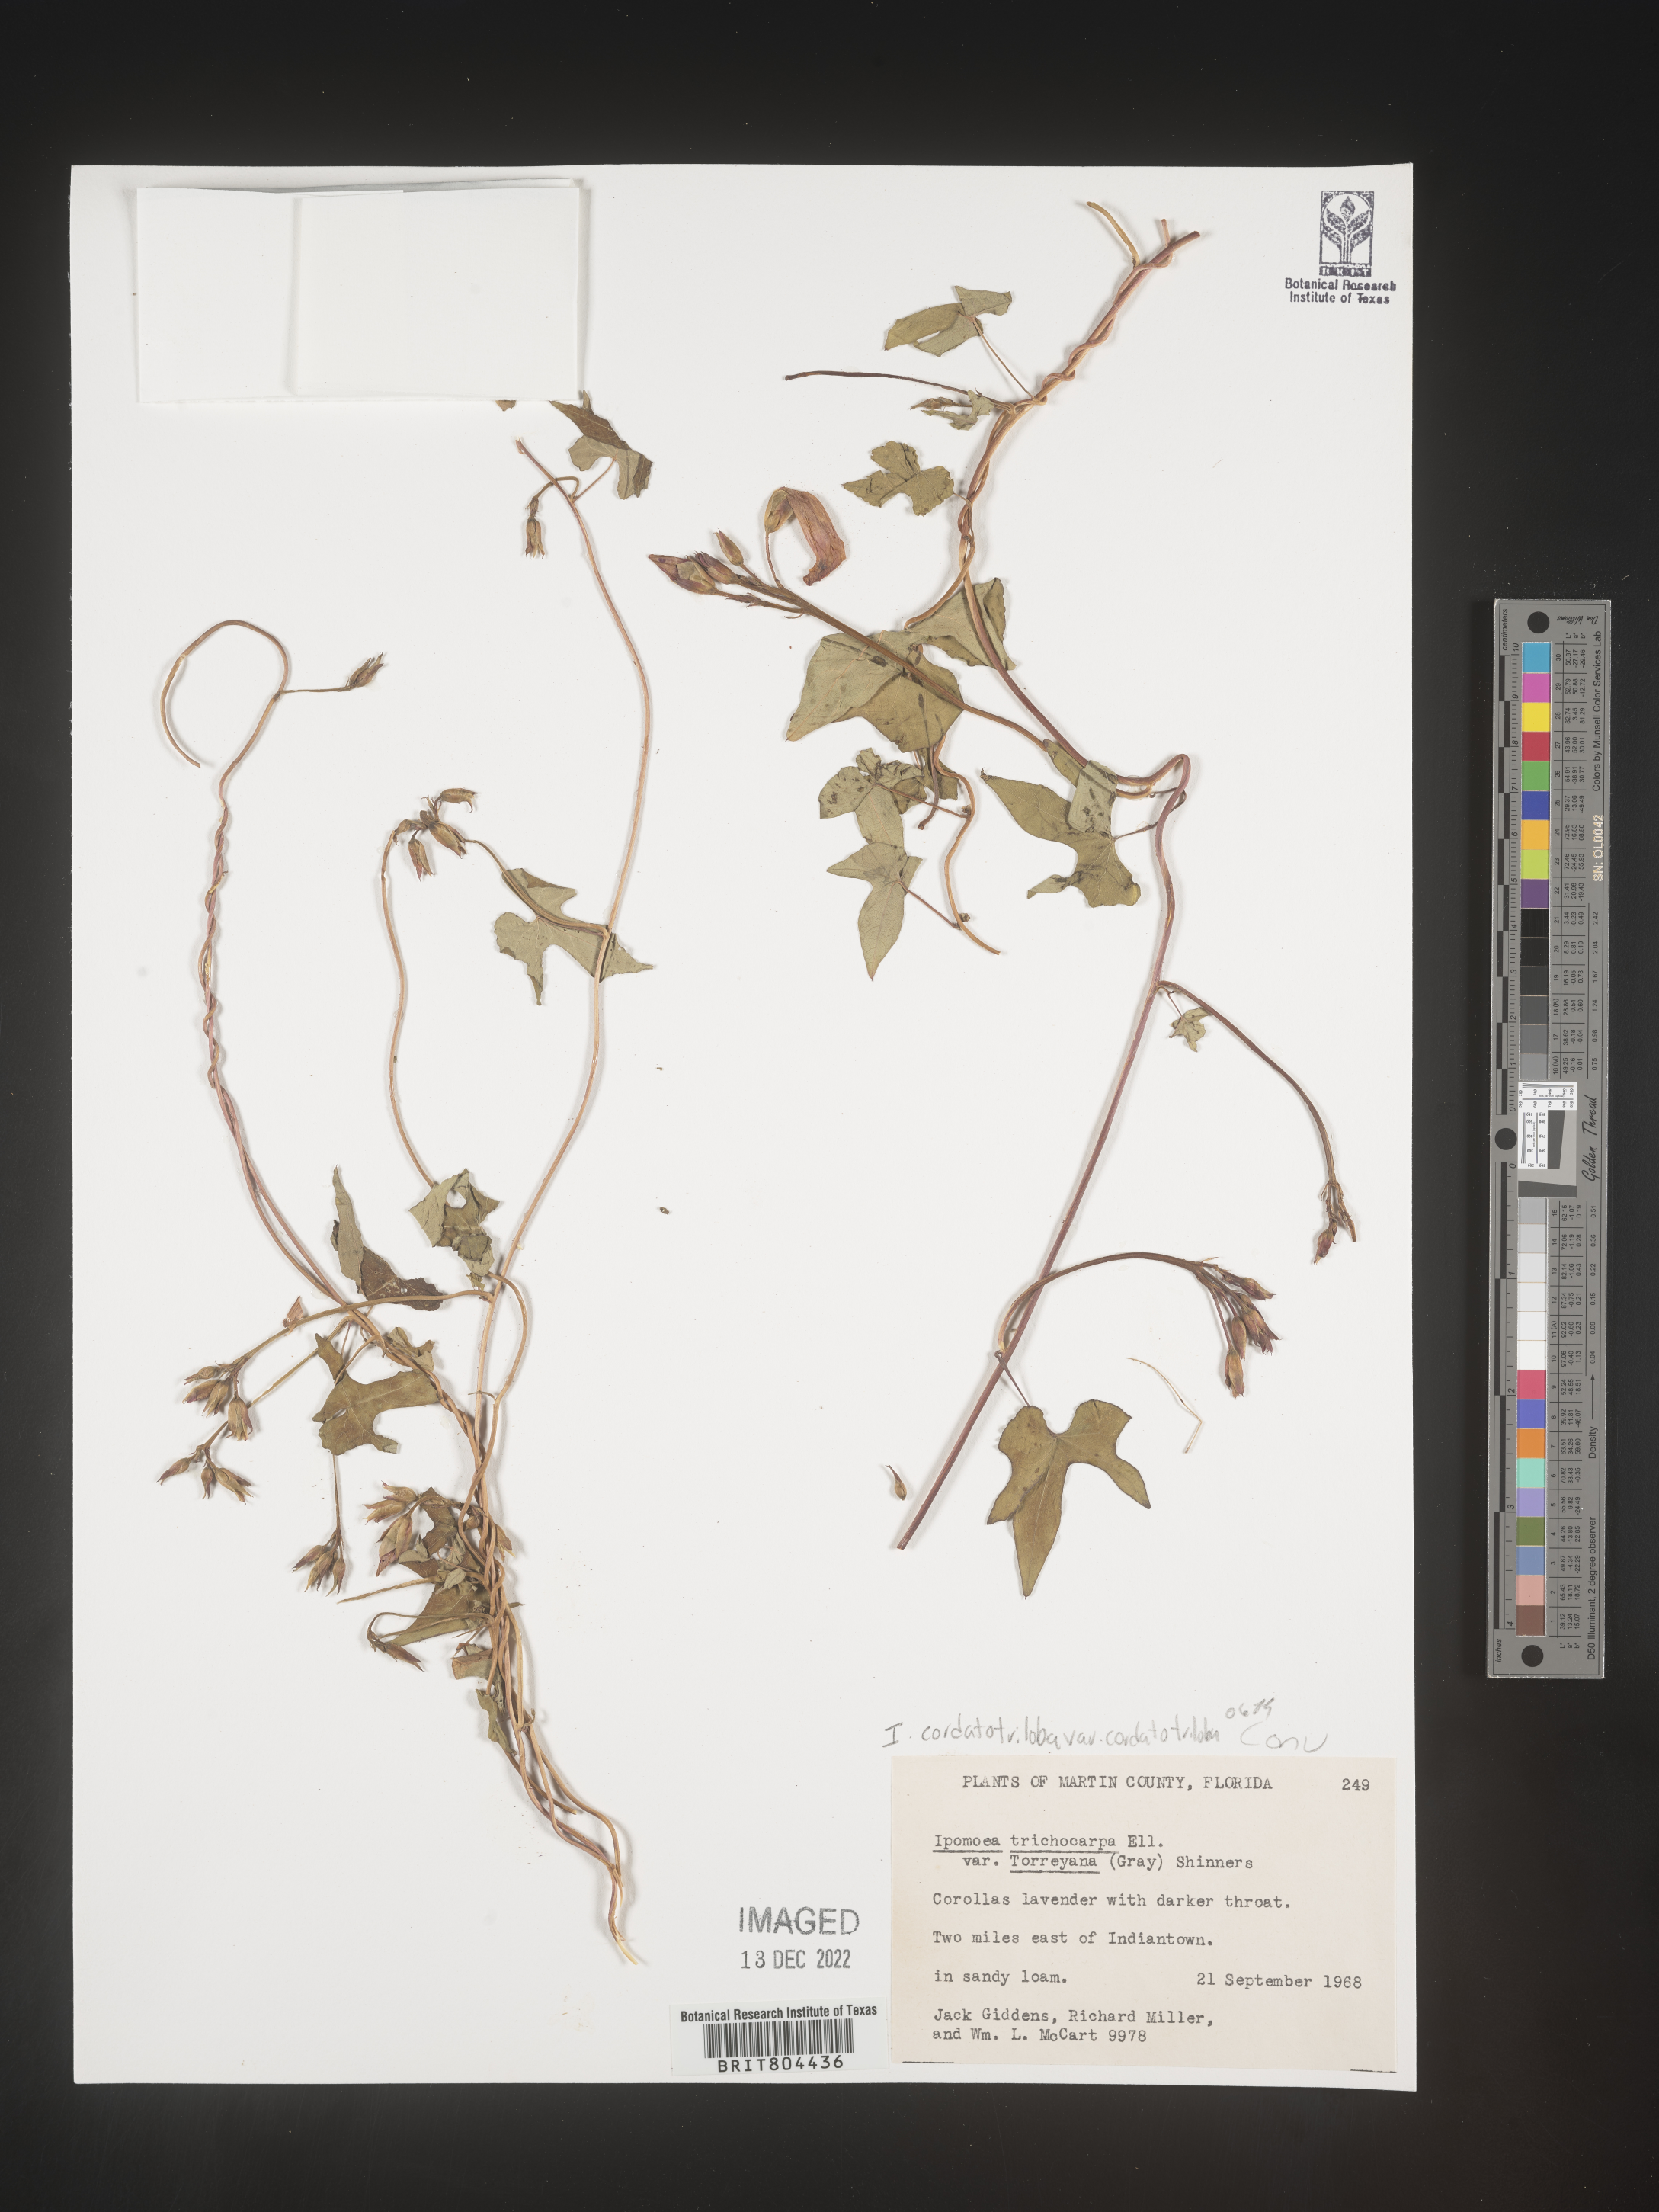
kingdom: Plantae
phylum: Tracheophyta
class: Magnoliopsida
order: Solanales
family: Convolvulaceae
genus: Ipomoea
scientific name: Ipomoea cordatotriloba
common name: Cotton morning glory
